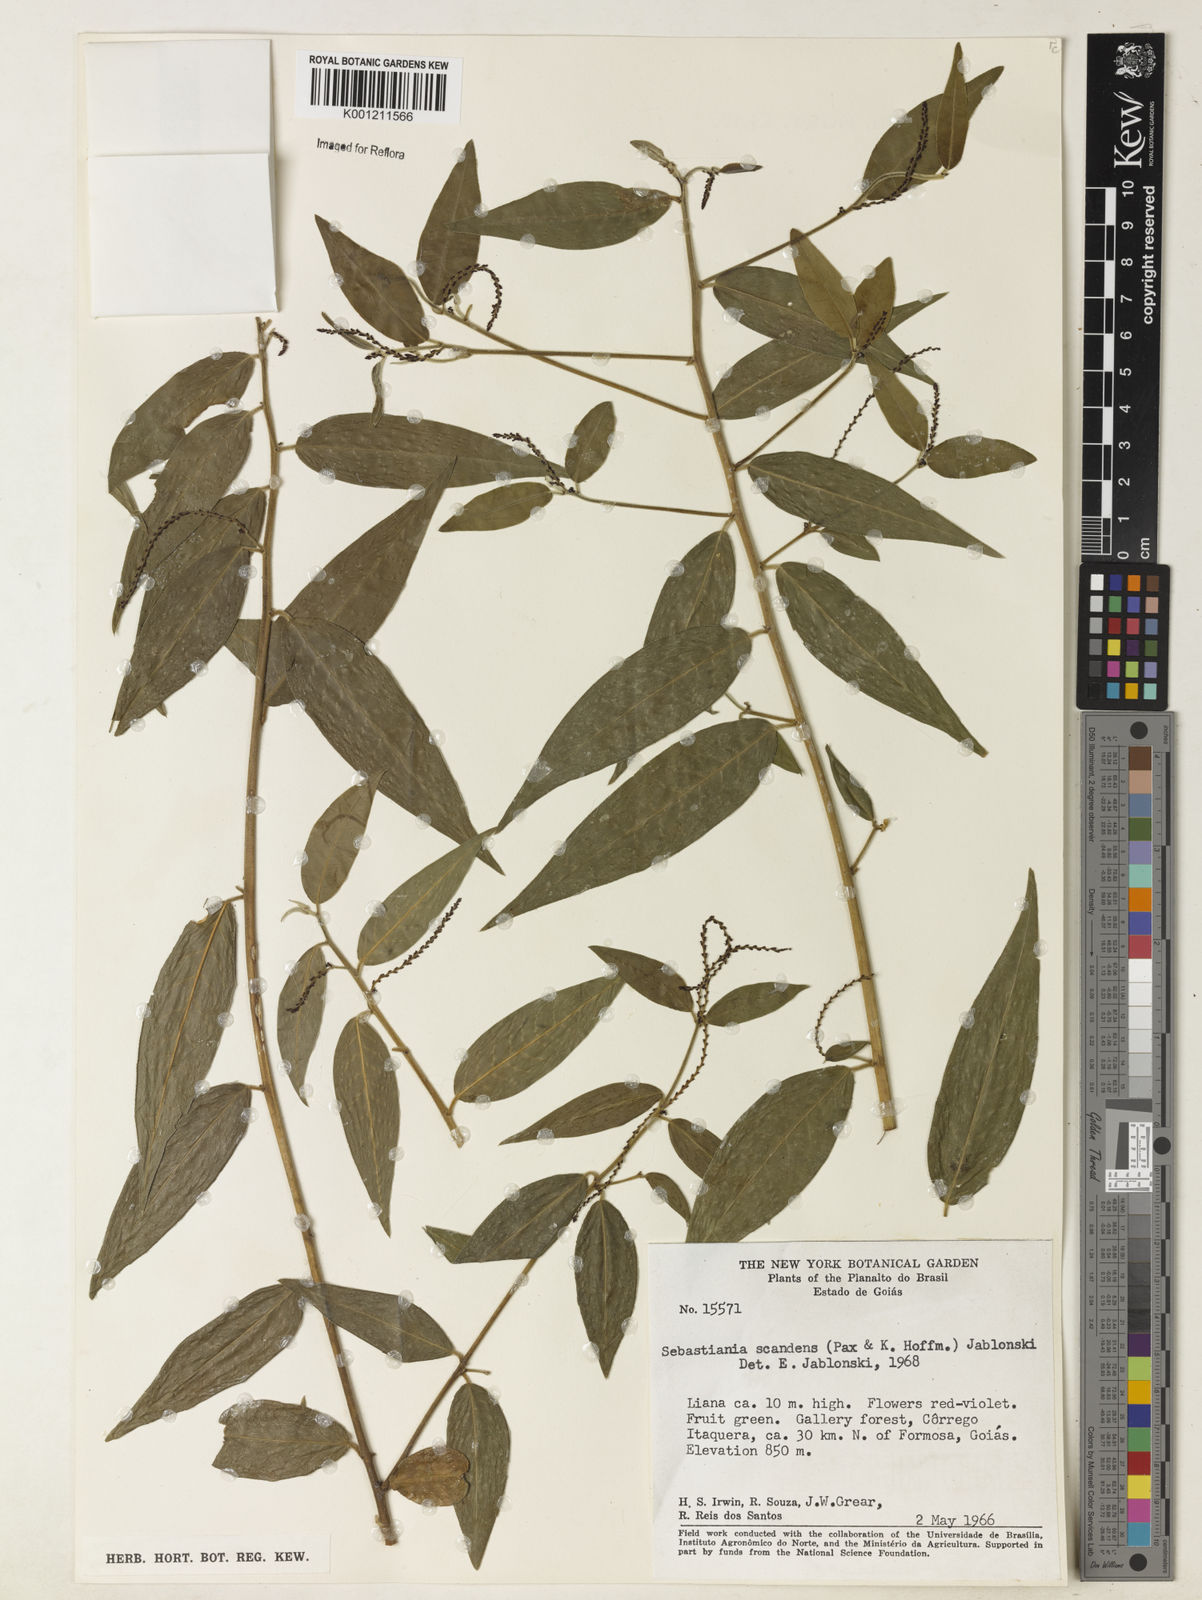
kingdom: Plantae
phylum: Tracheophyta
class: Magnoliopsida
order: Malpighiales
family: Euphorbiaceae
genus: Microstachys
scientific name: Microstachys hispida
